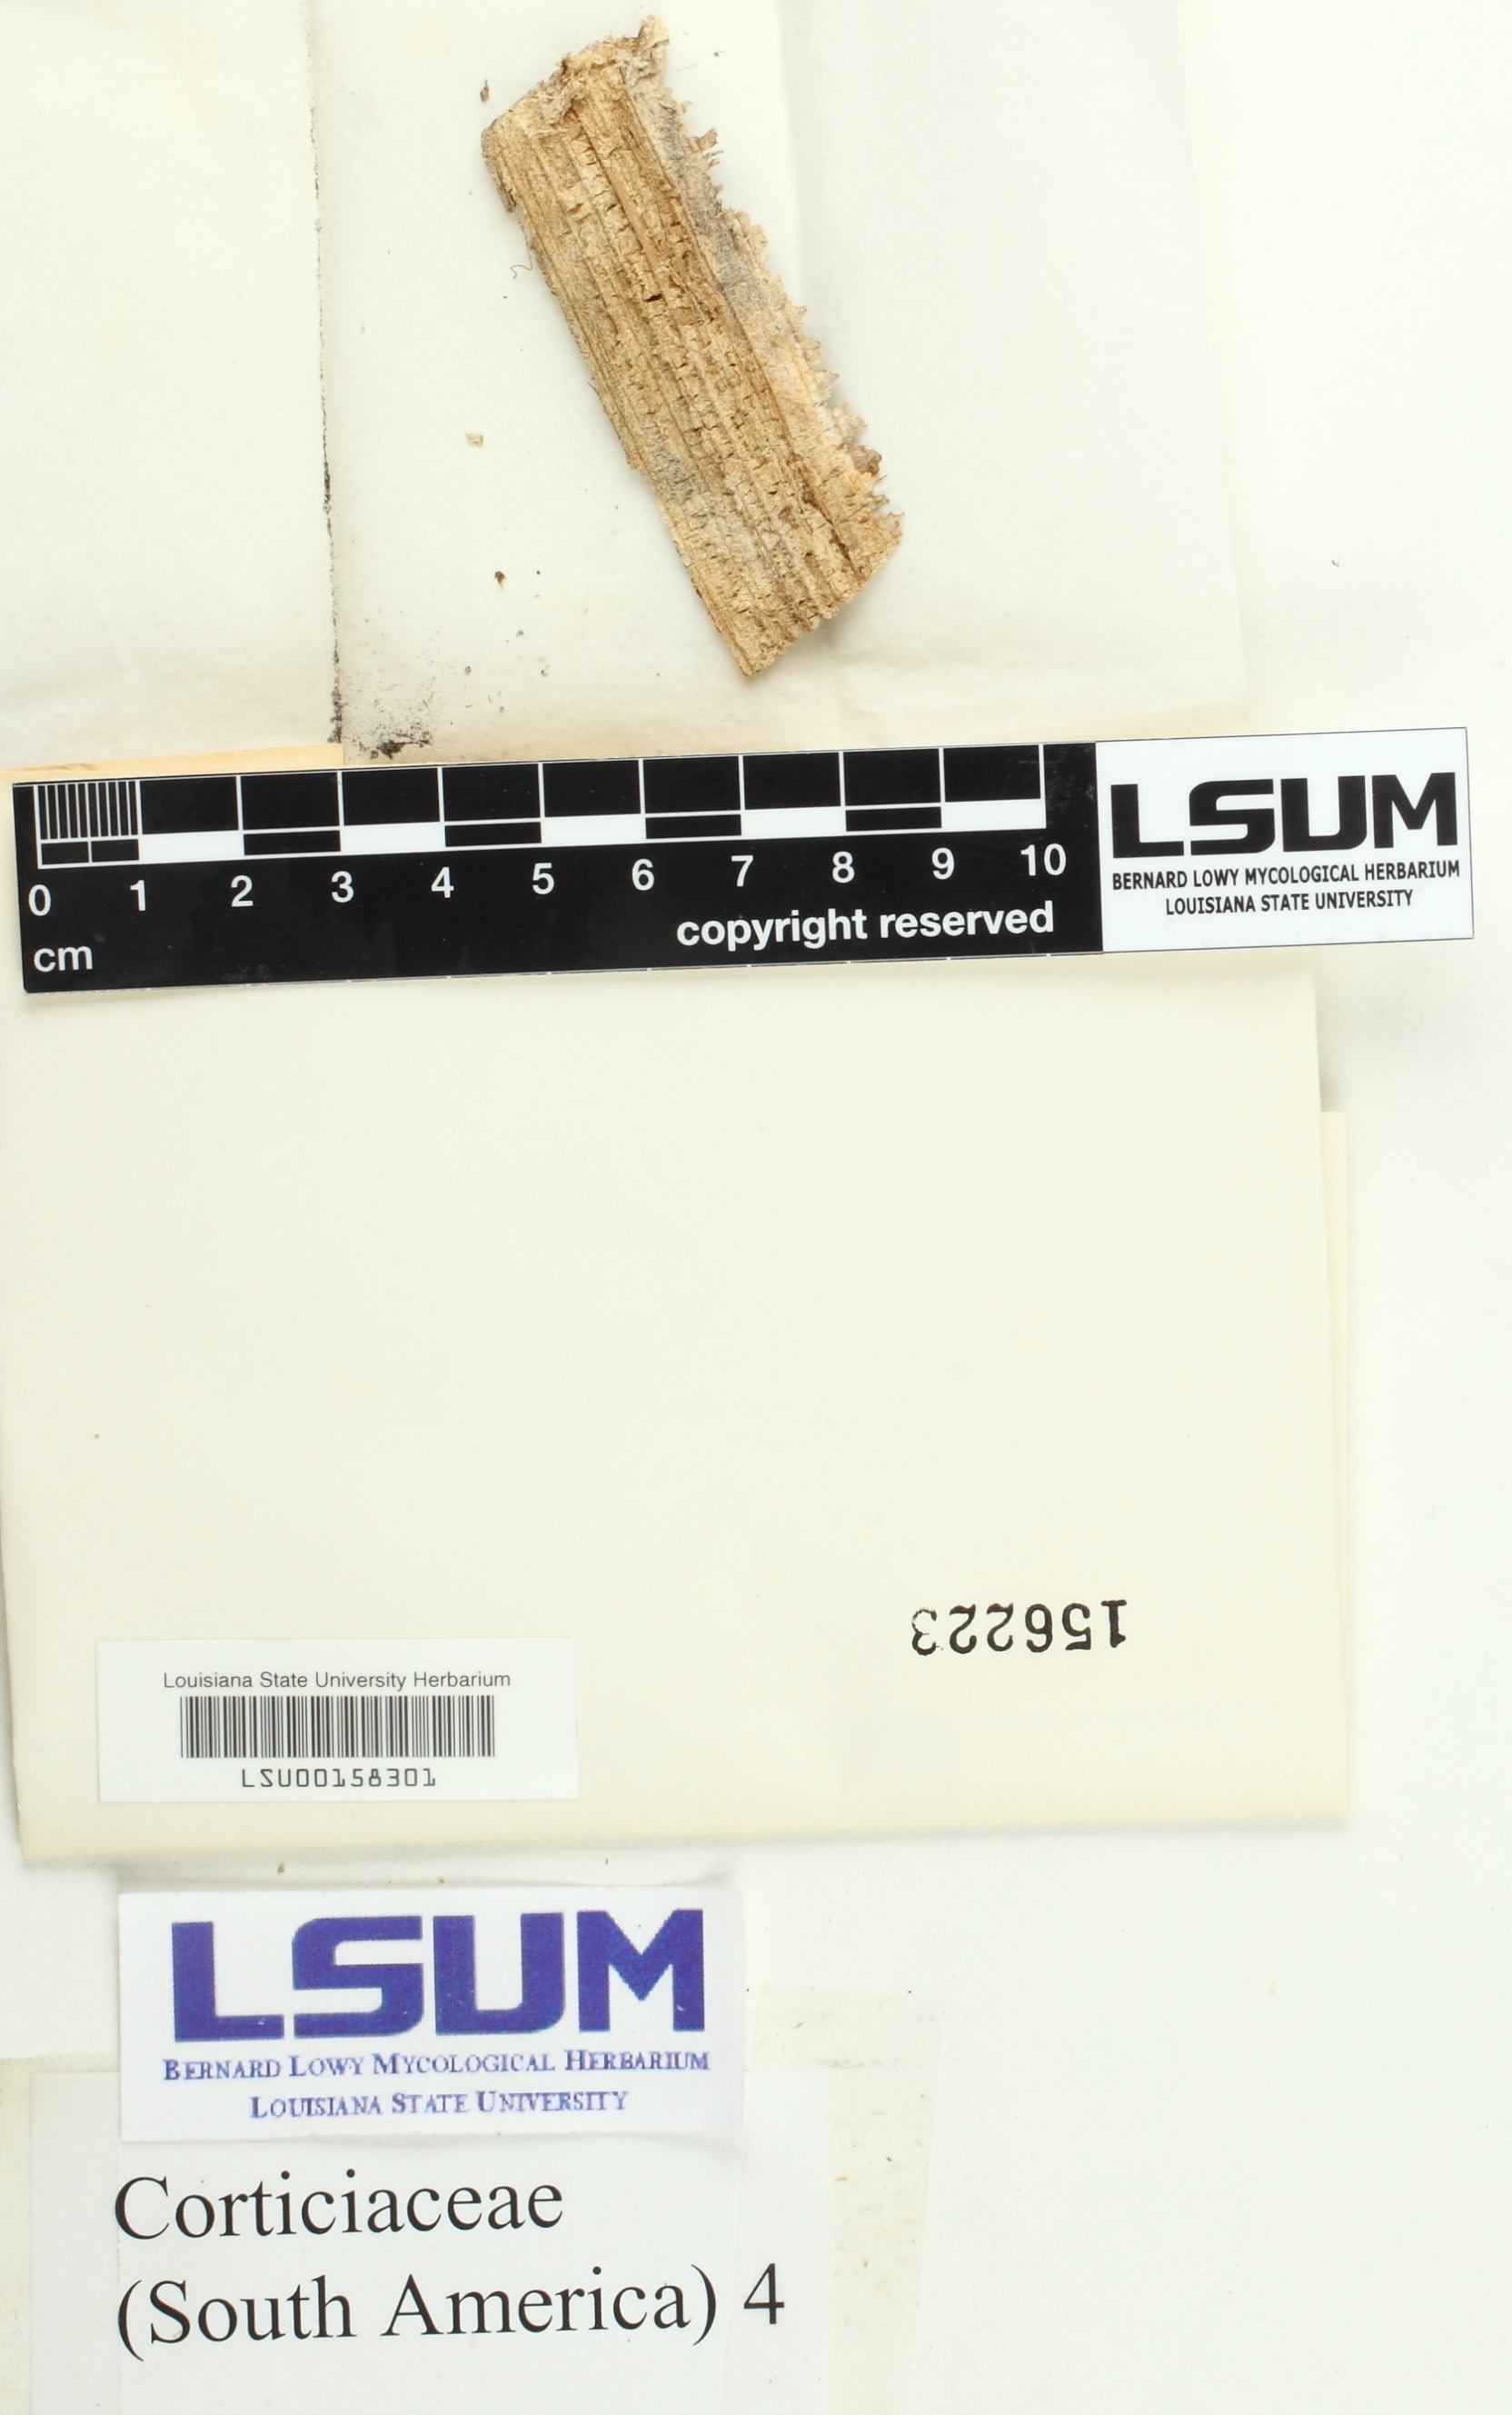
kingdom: Fungi
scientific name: Fungi
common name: Fungi
